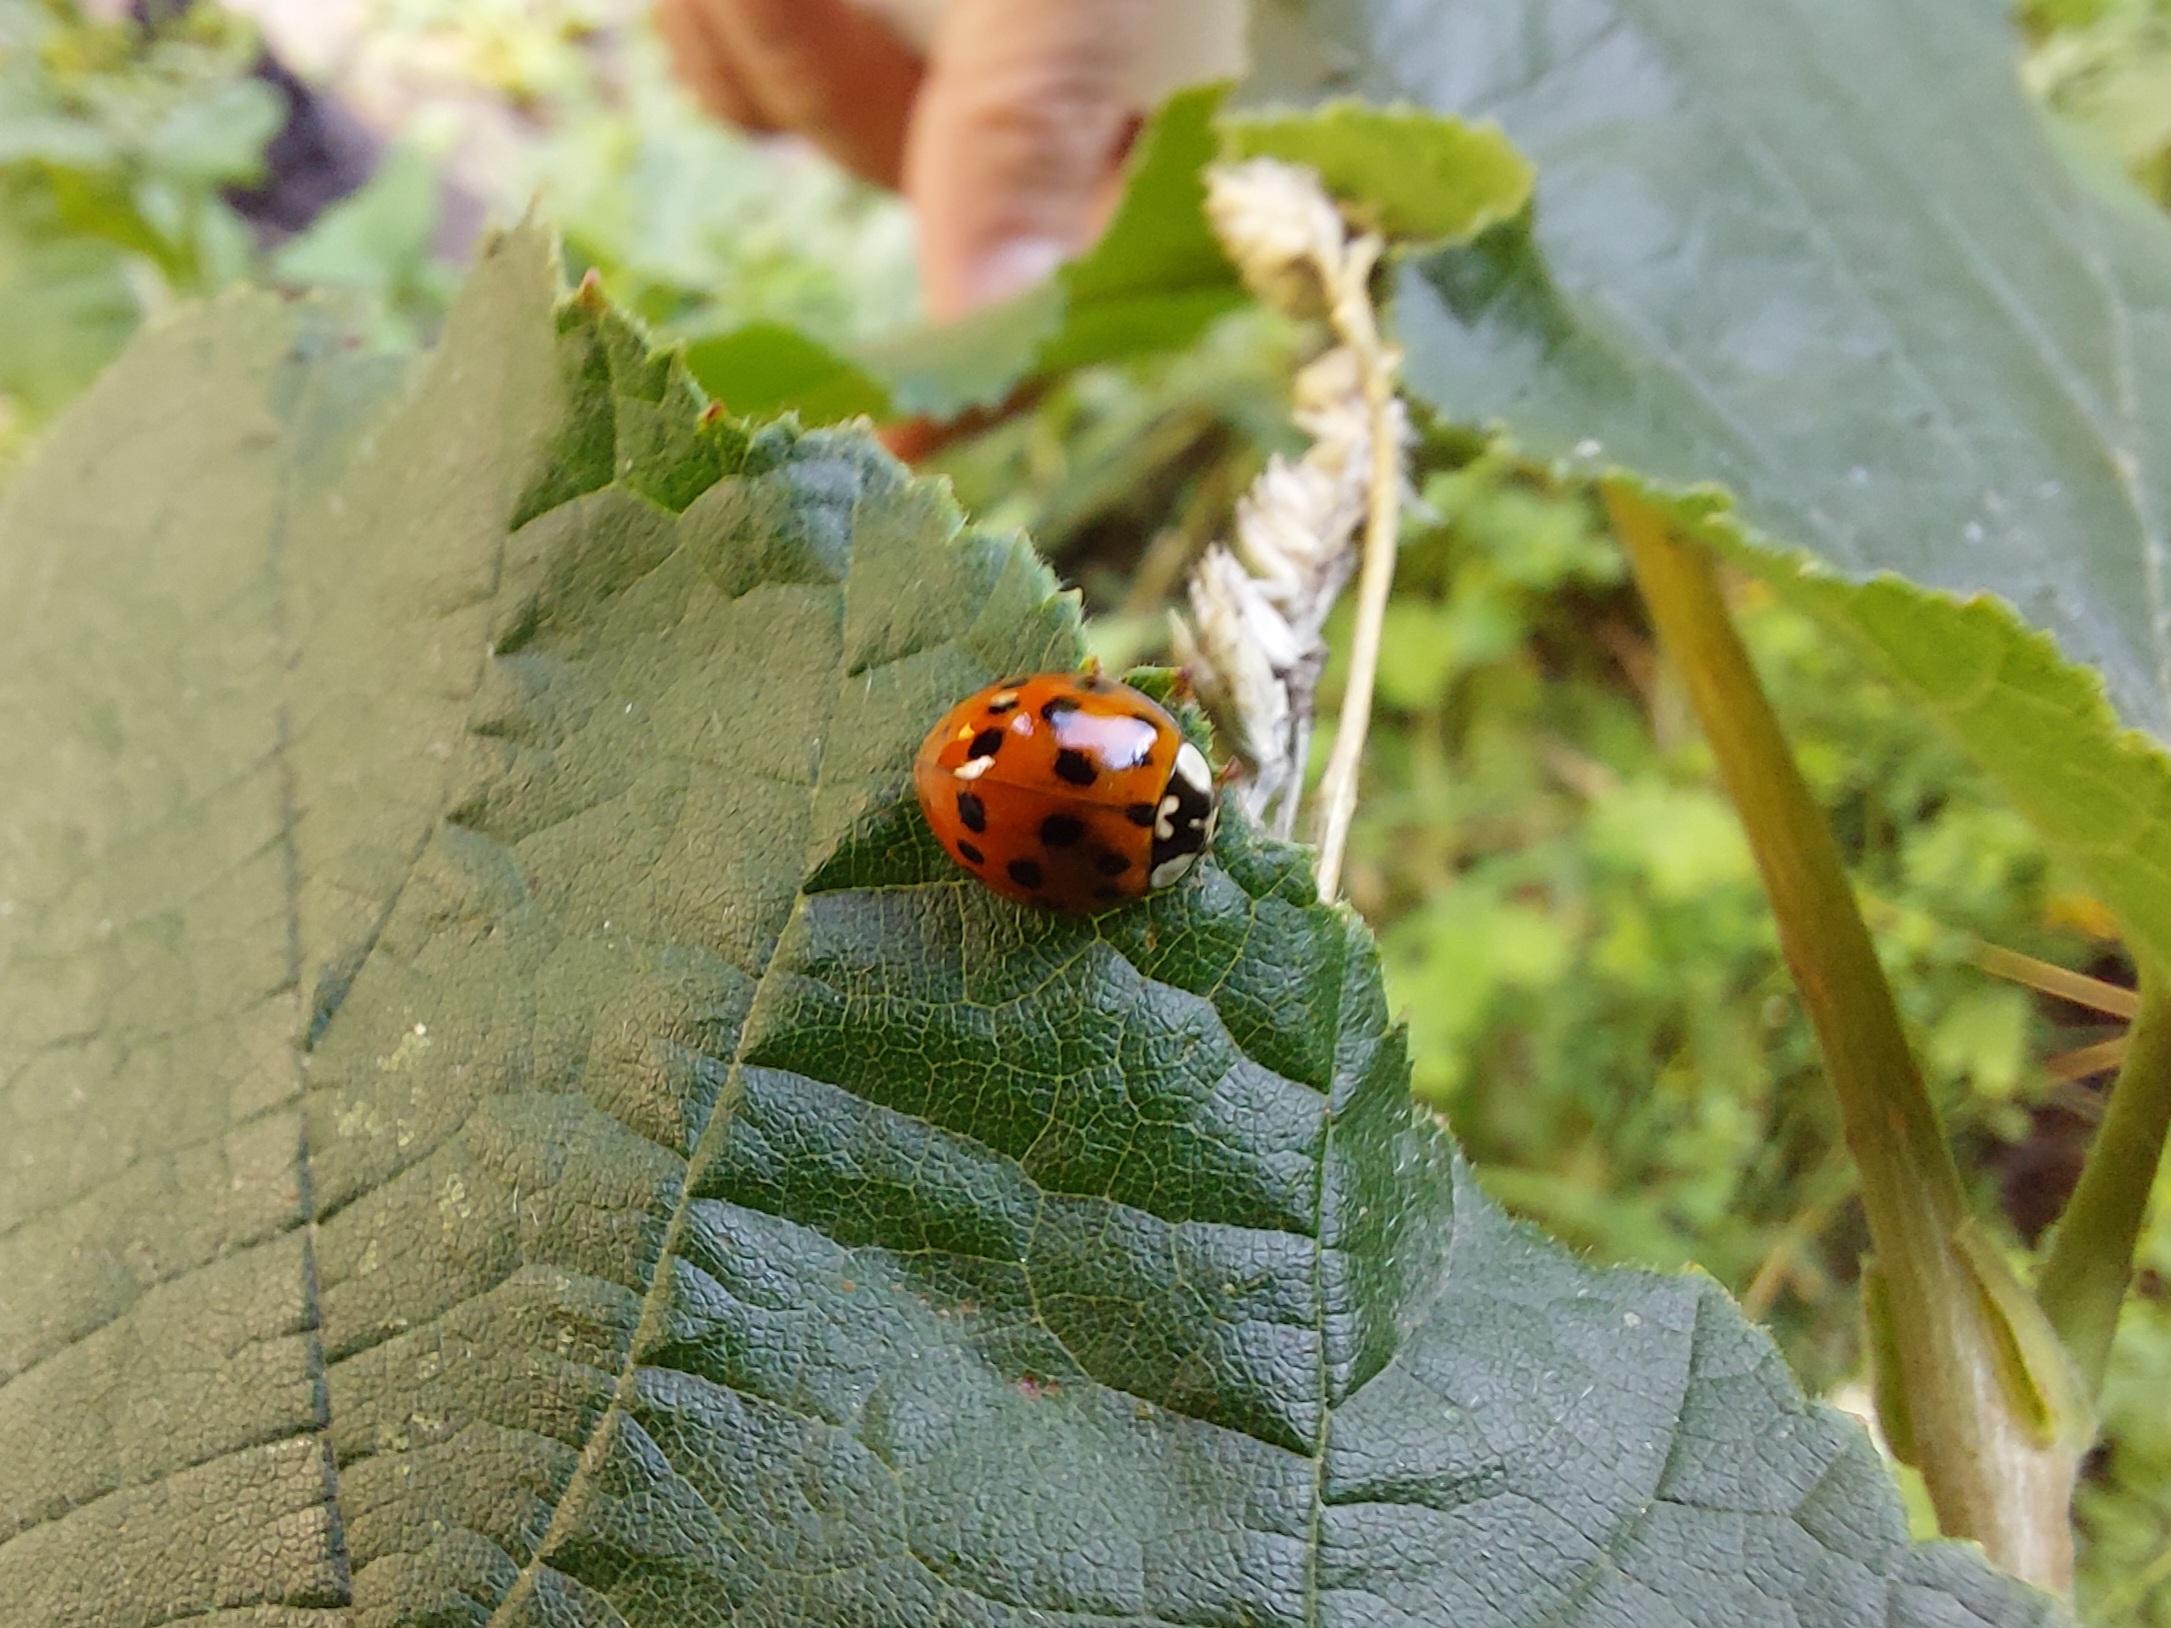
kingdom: Animalia
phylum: Arthropoda
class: Insecta
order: Coleoptera
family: Coccinellidae
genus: Harmonia
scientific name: Harmonia axyridis
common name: Harlekinmariehøne
